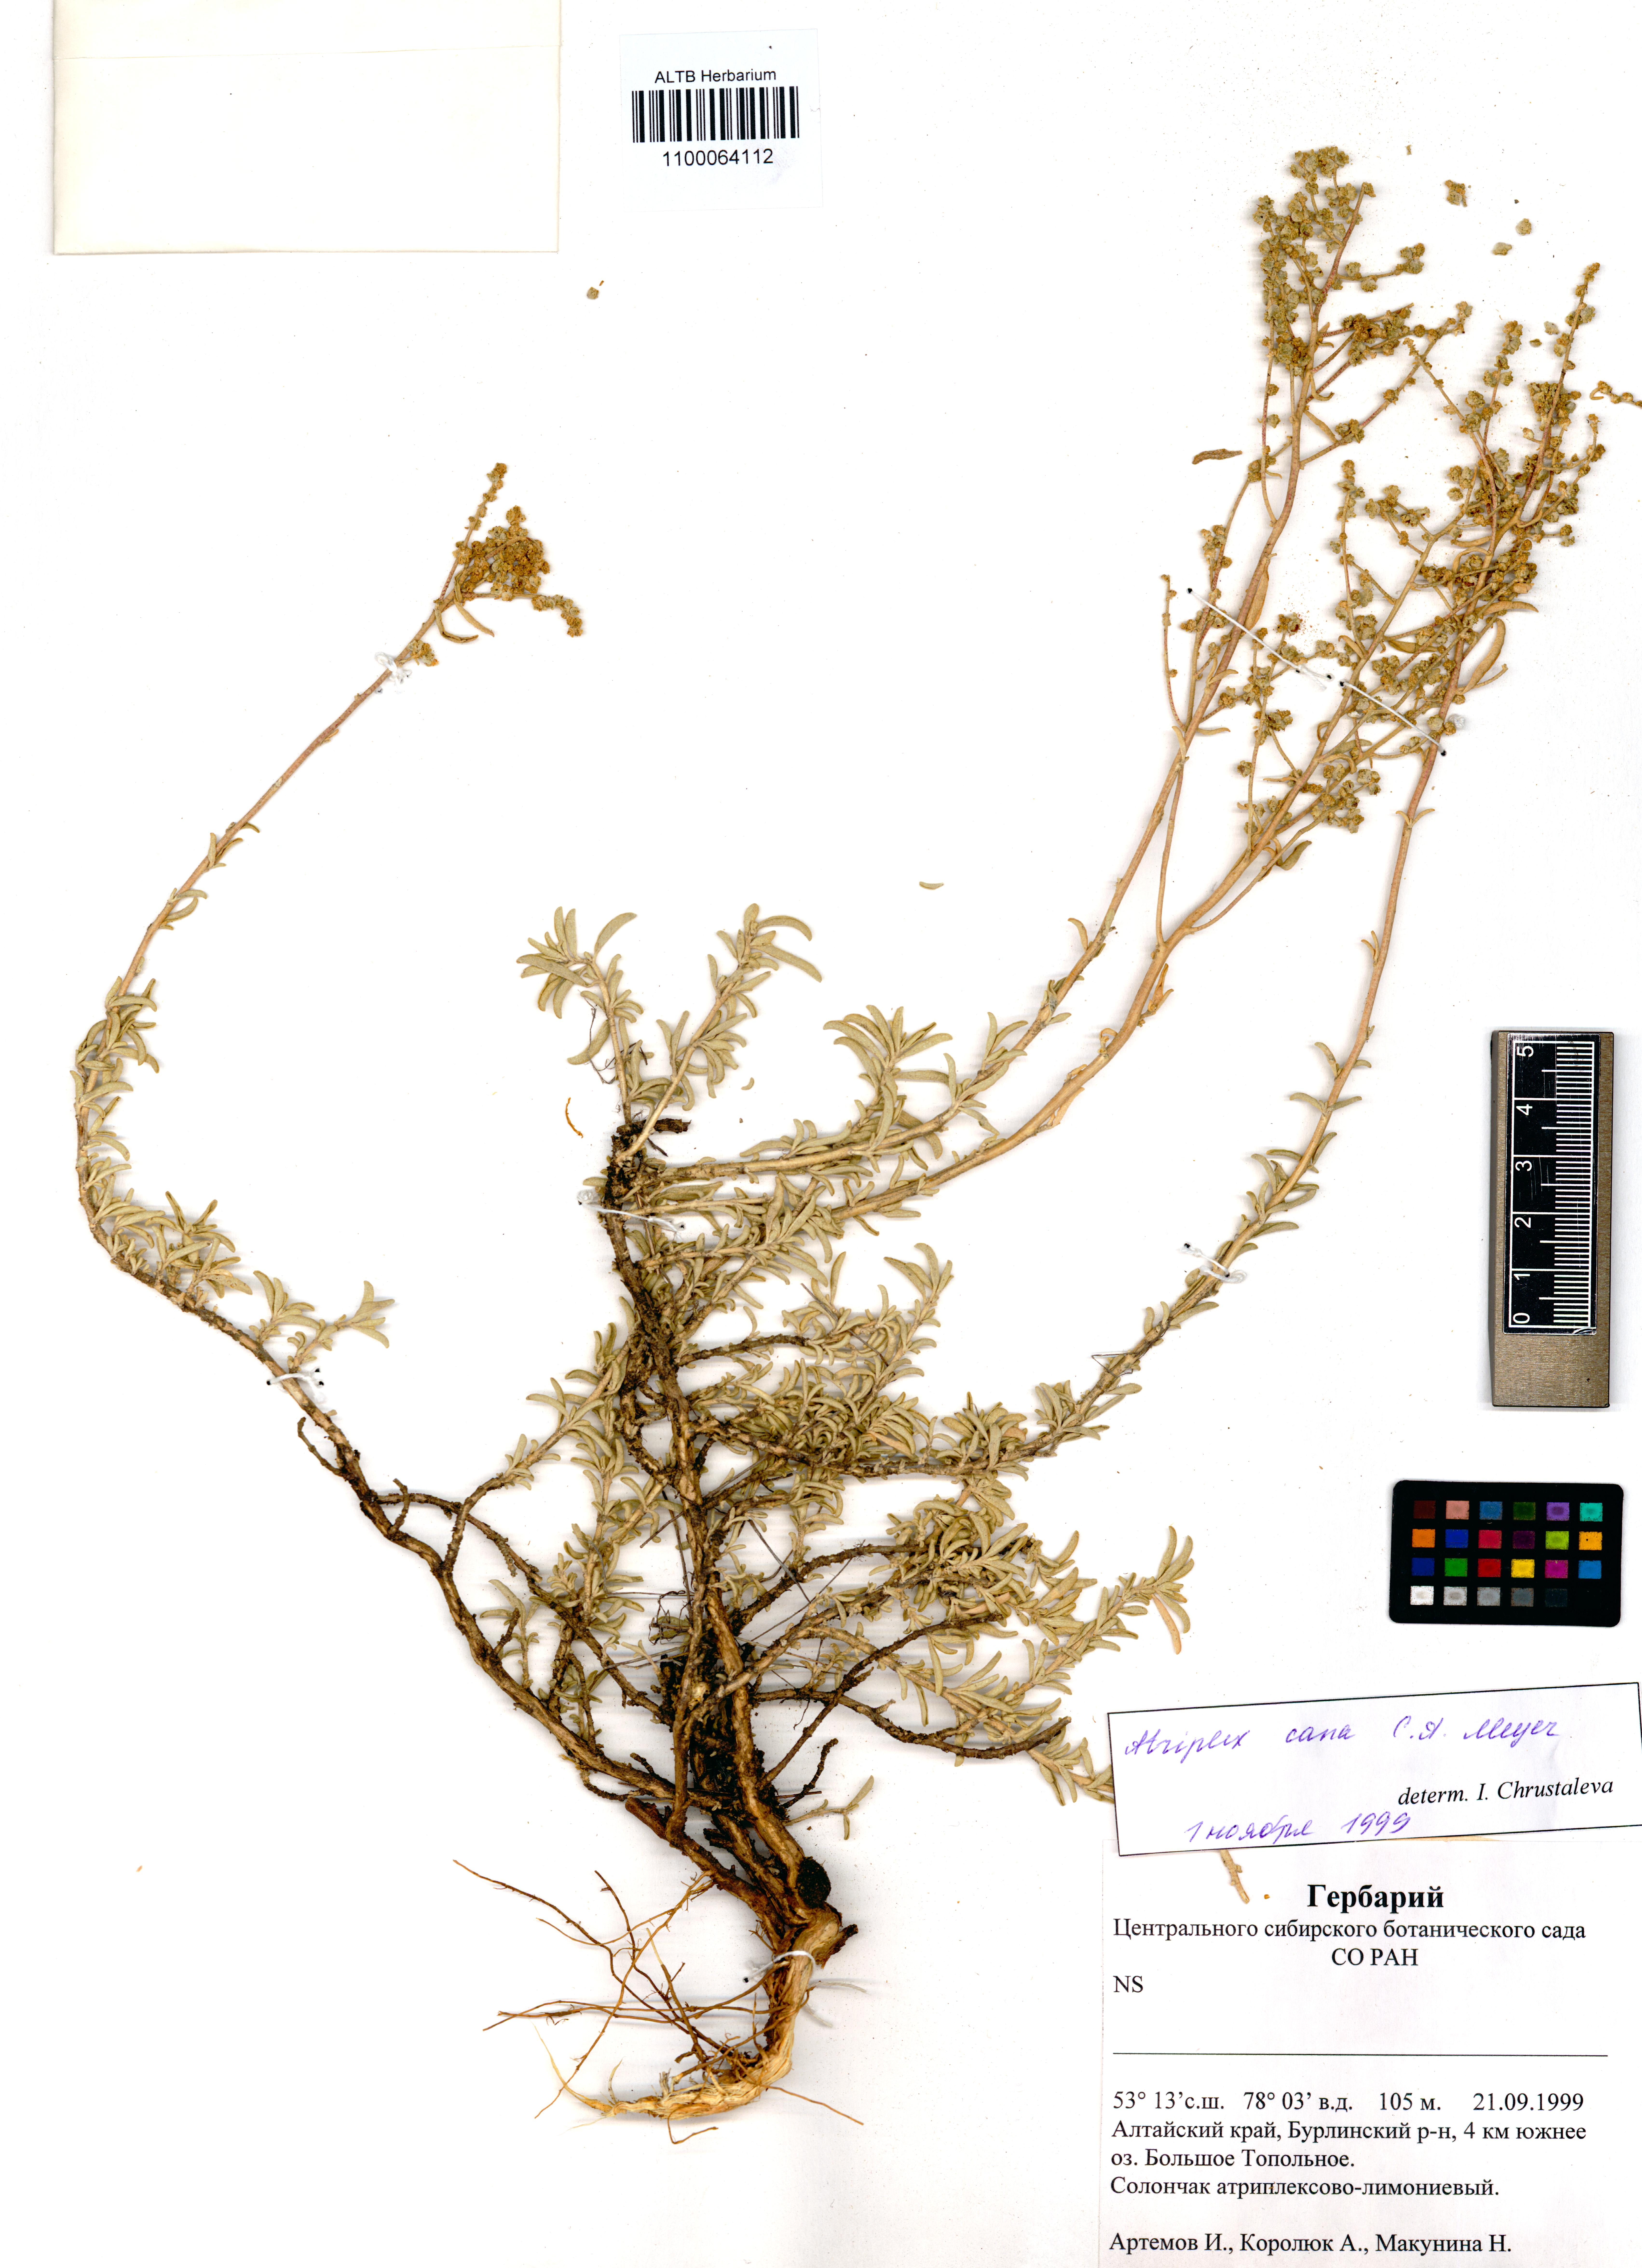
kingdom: Plantae
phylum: Tracheophyta
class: Magnoliopsida
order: Caryophyllales
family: Amaranthaceae
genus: Atriplex
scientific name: Atriplex cana
